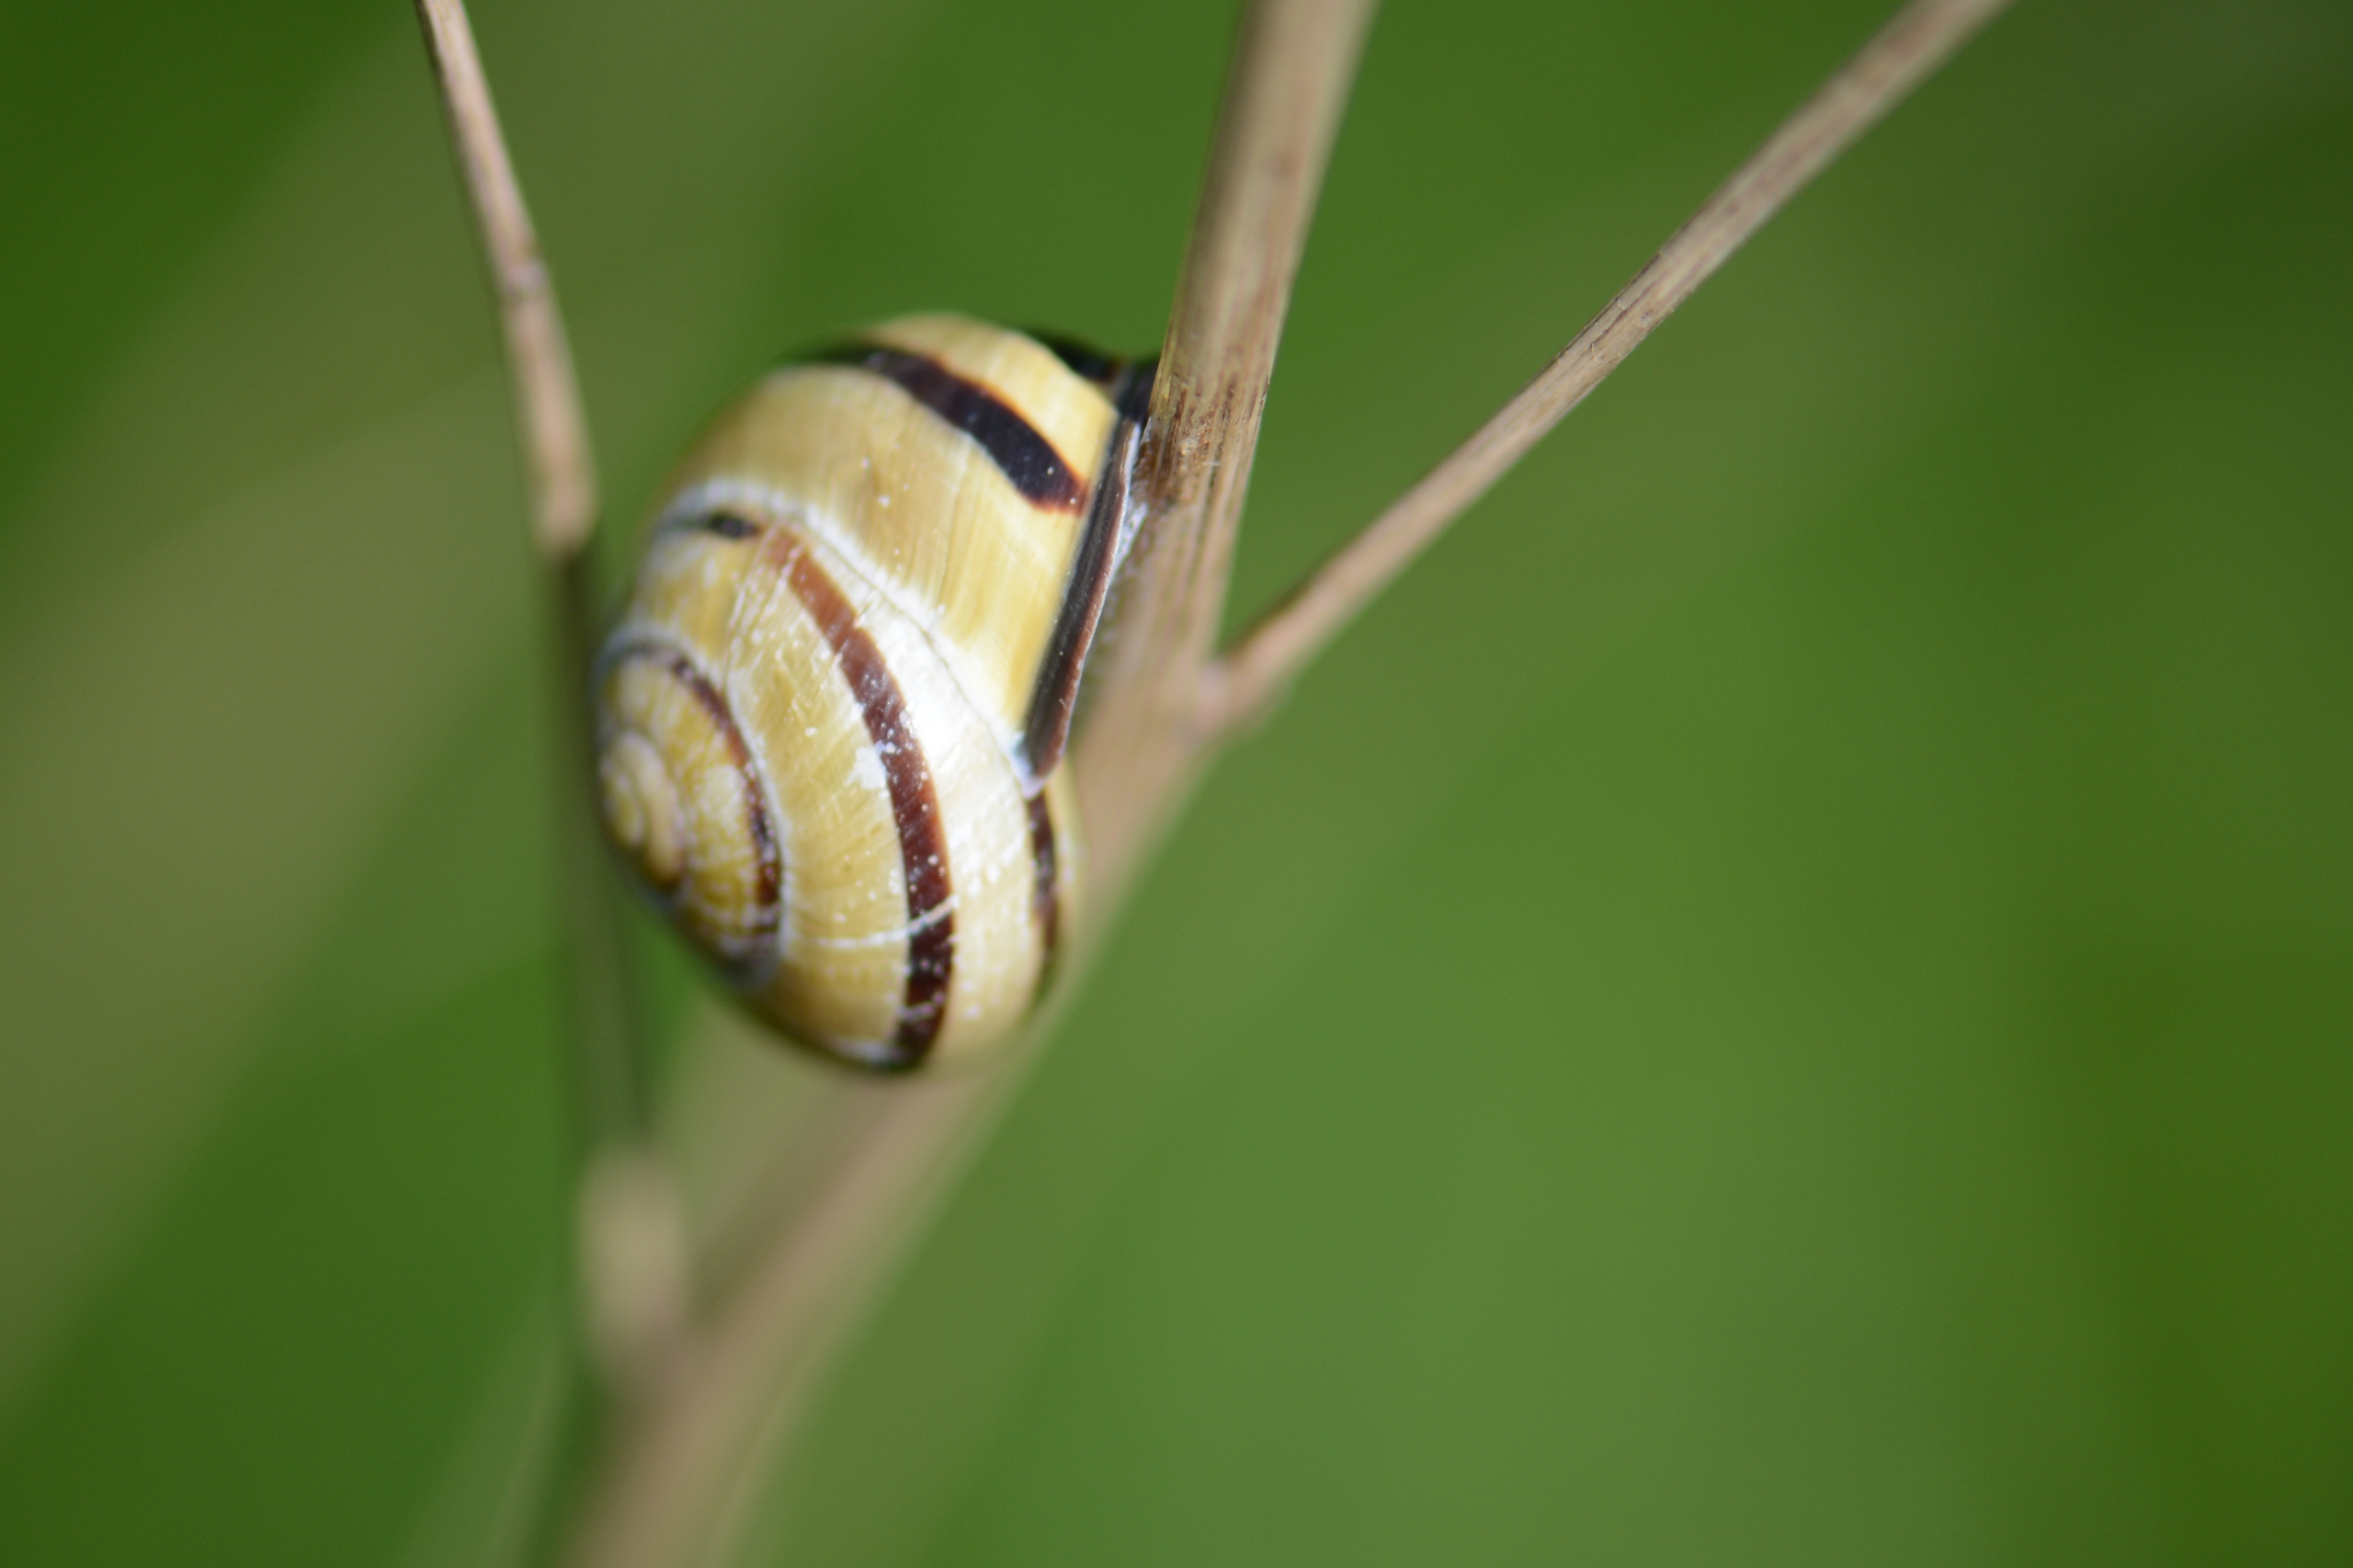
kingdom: Animalia
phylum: Mollusca
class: Gastropoda
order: Stylommatophora
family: Helicidae
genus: Cepaea
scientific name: Cepaea nemoralis
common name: Lundsnegl
